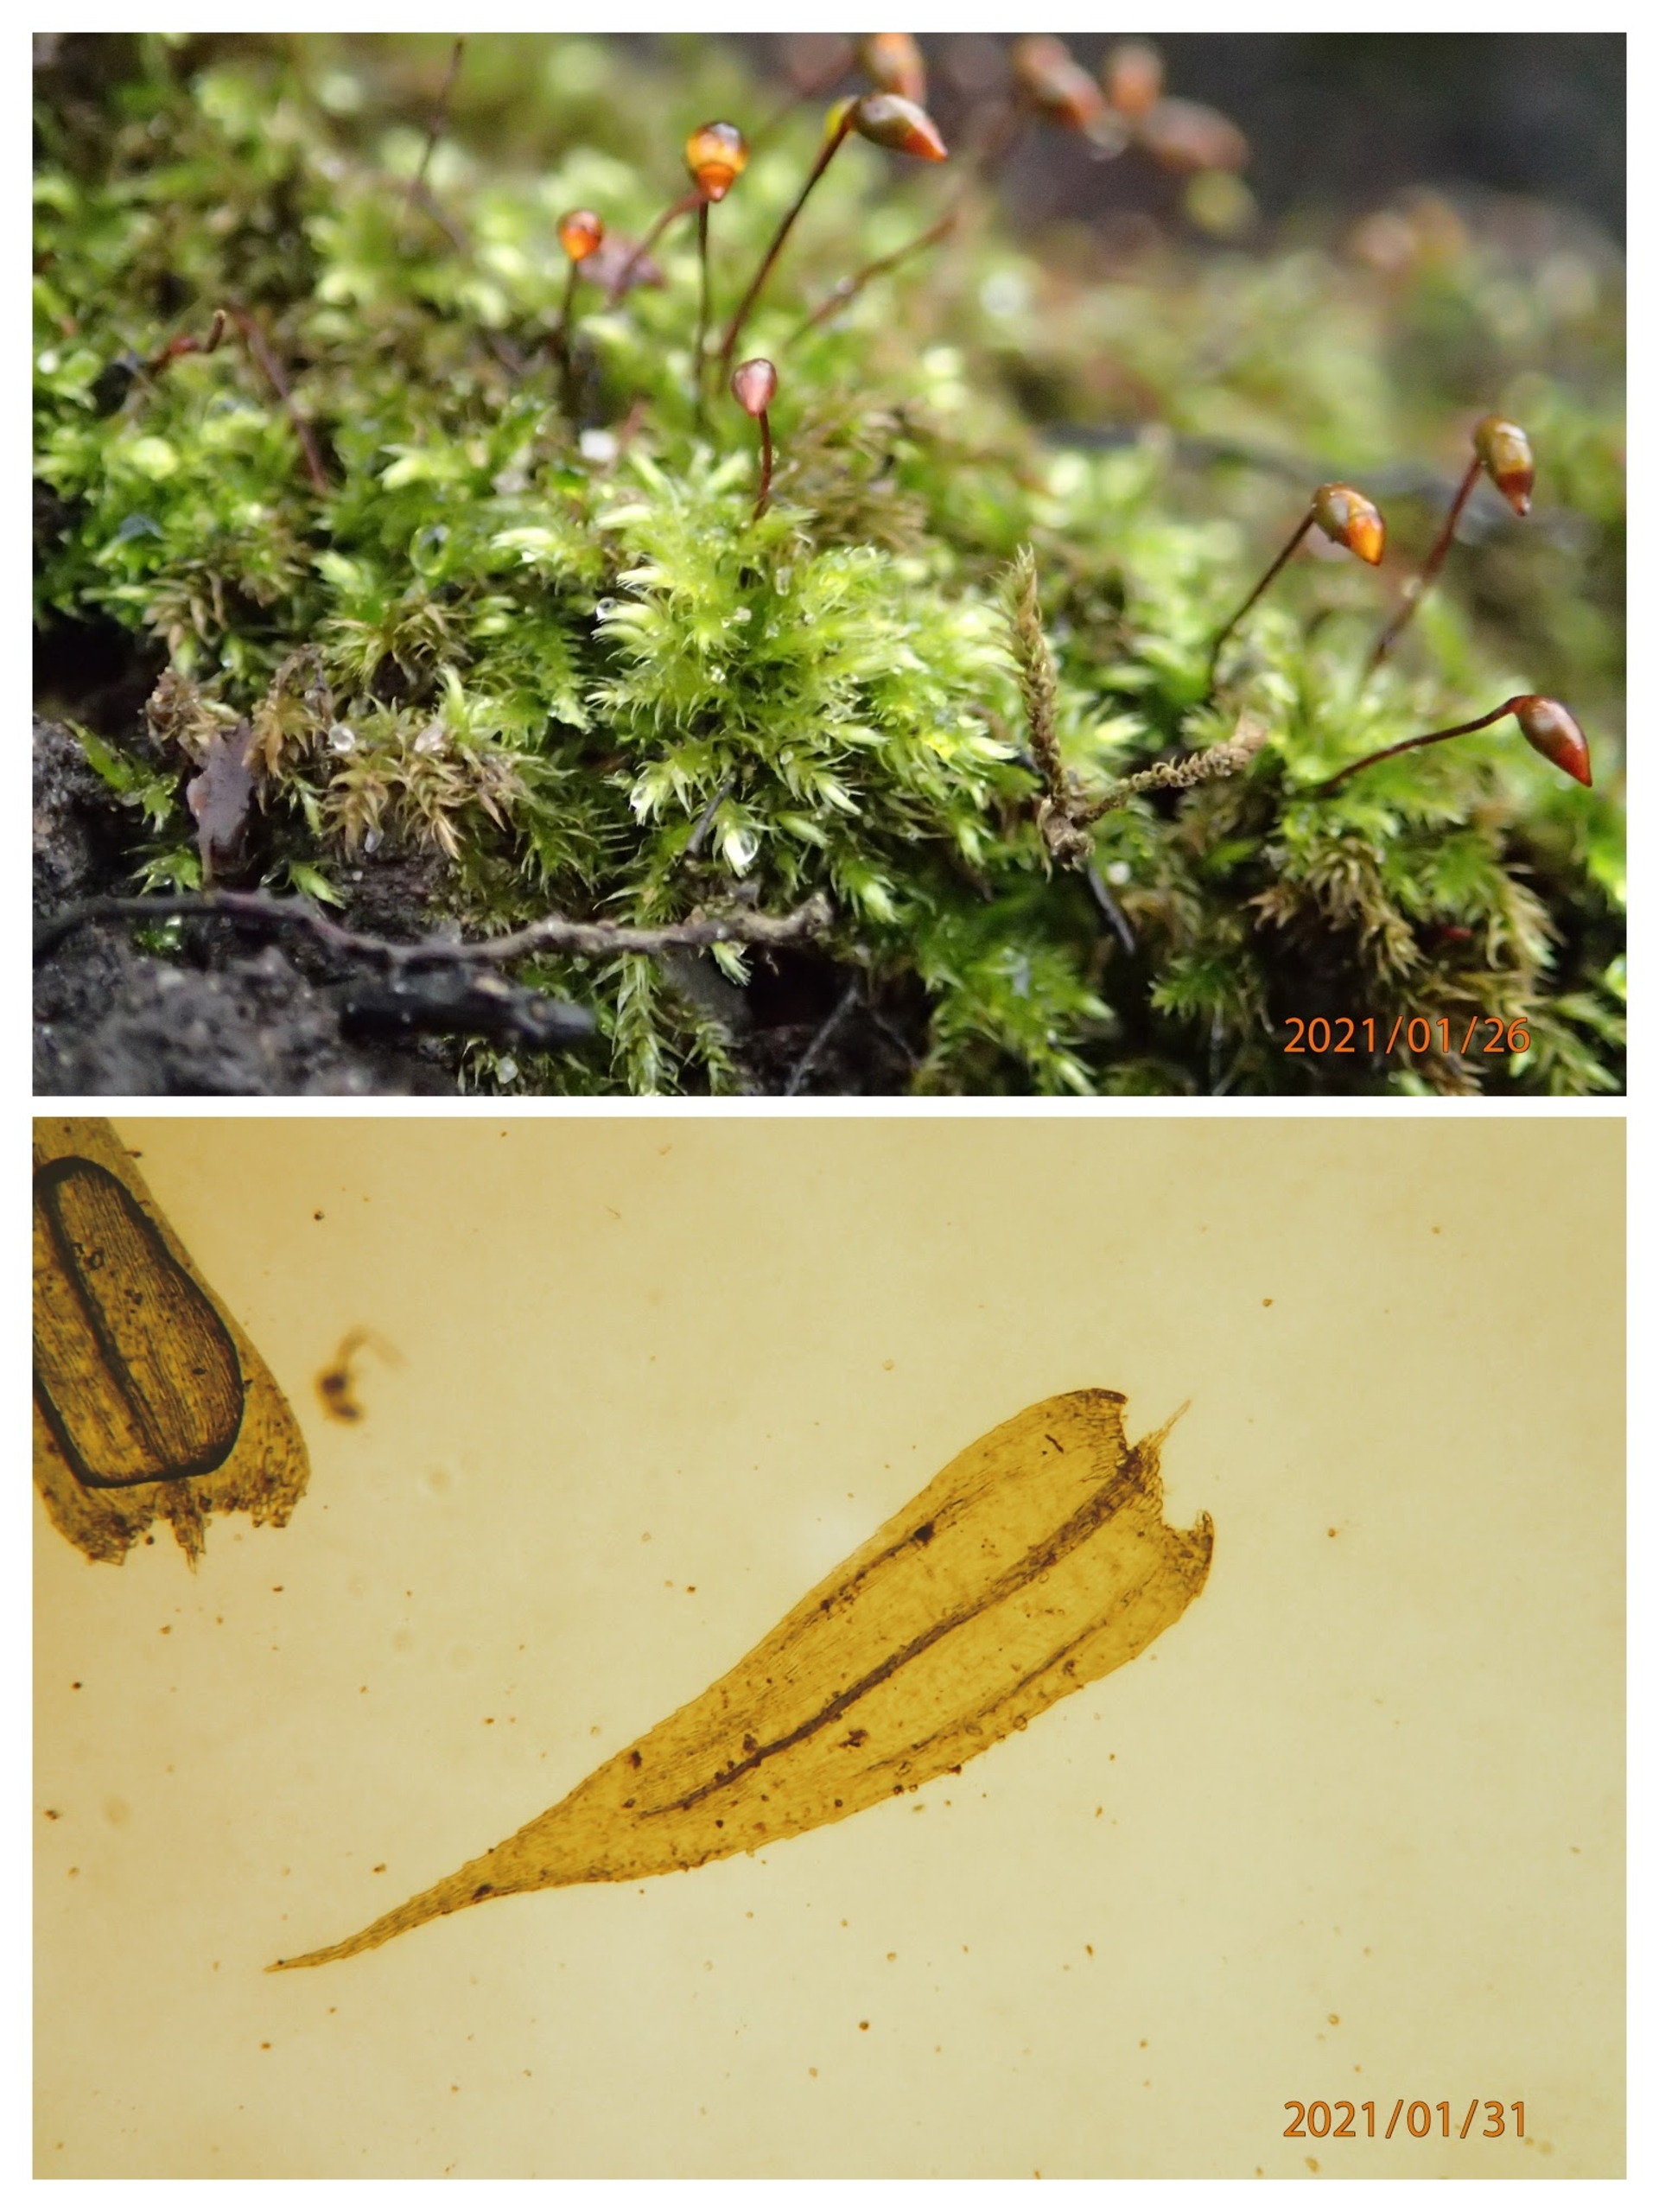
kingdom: Plantae
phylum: Bryophyta
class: Bryopsida
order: Hypnales
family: Brachytheciaceae
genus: Brachytheciastrum
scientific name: Brachytheciastrum velutinum
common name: Fløjls-kortkapsel
